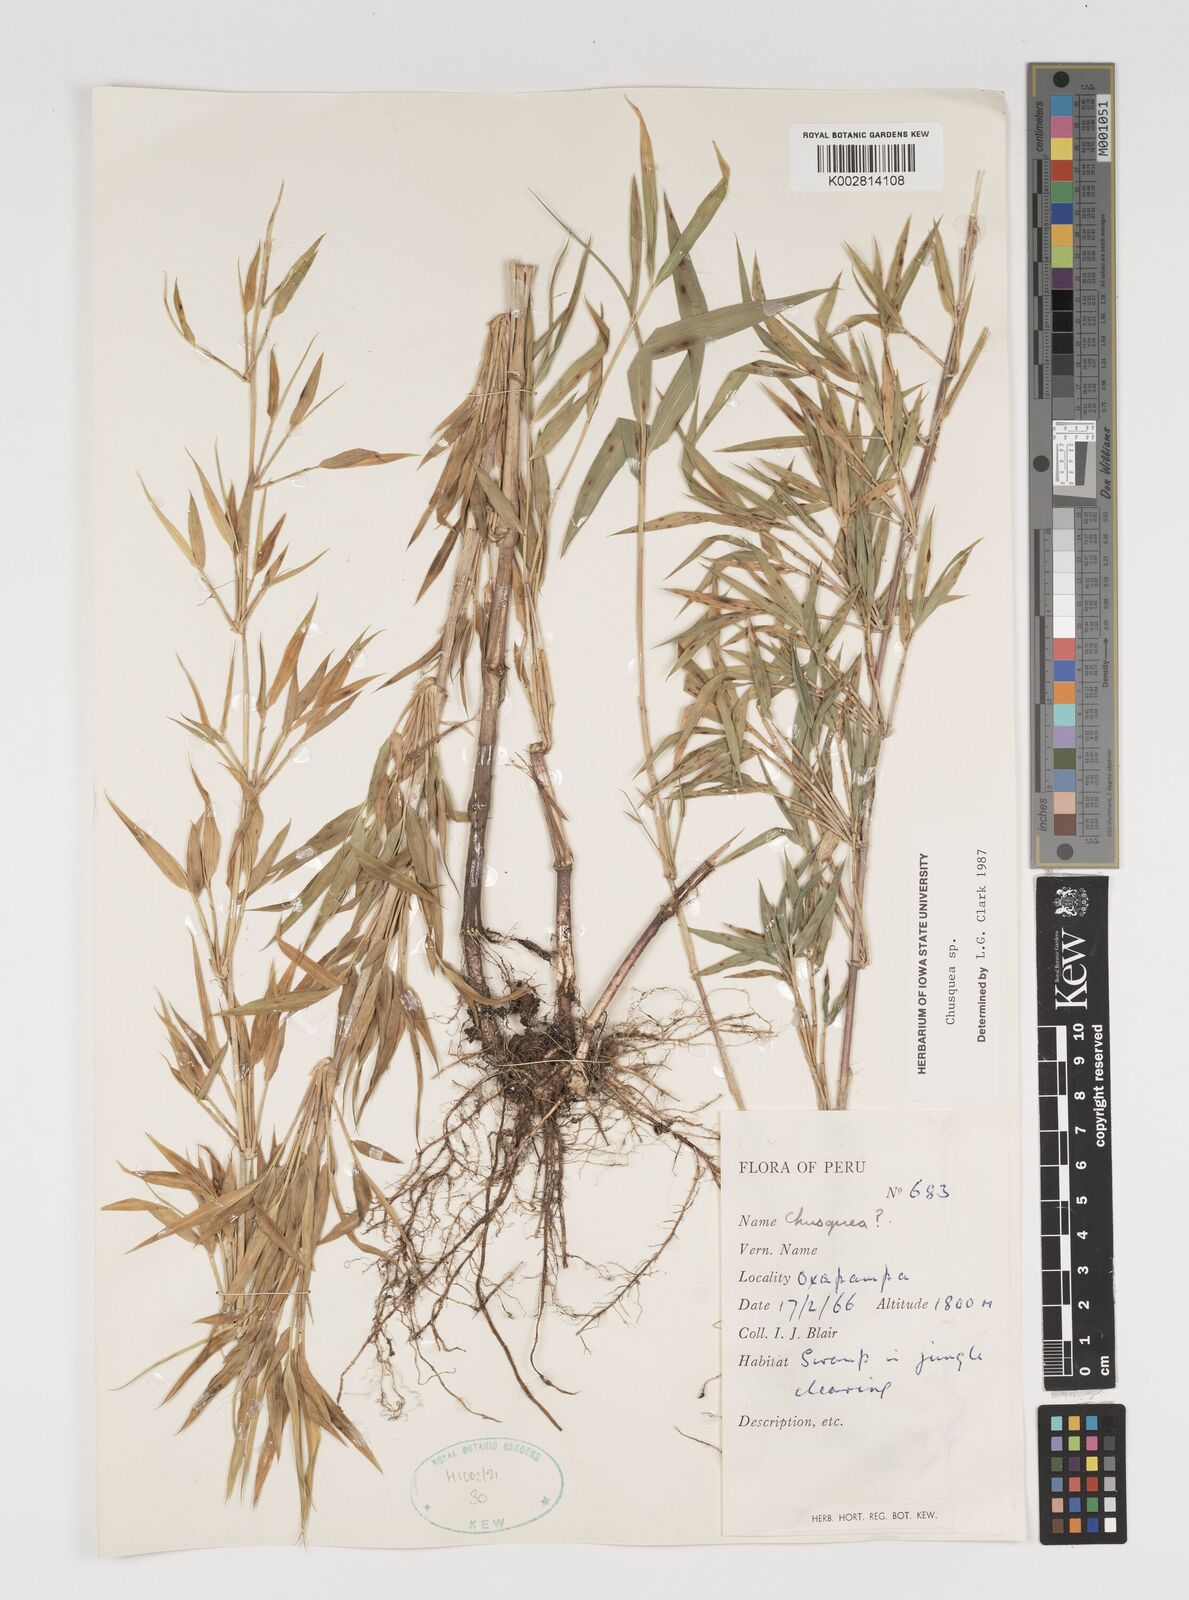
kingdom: Plantae
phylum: Tracheophyta
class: Liliopsida
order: Poales
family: Poaceae
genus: Chusquea
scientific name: Chusquea
